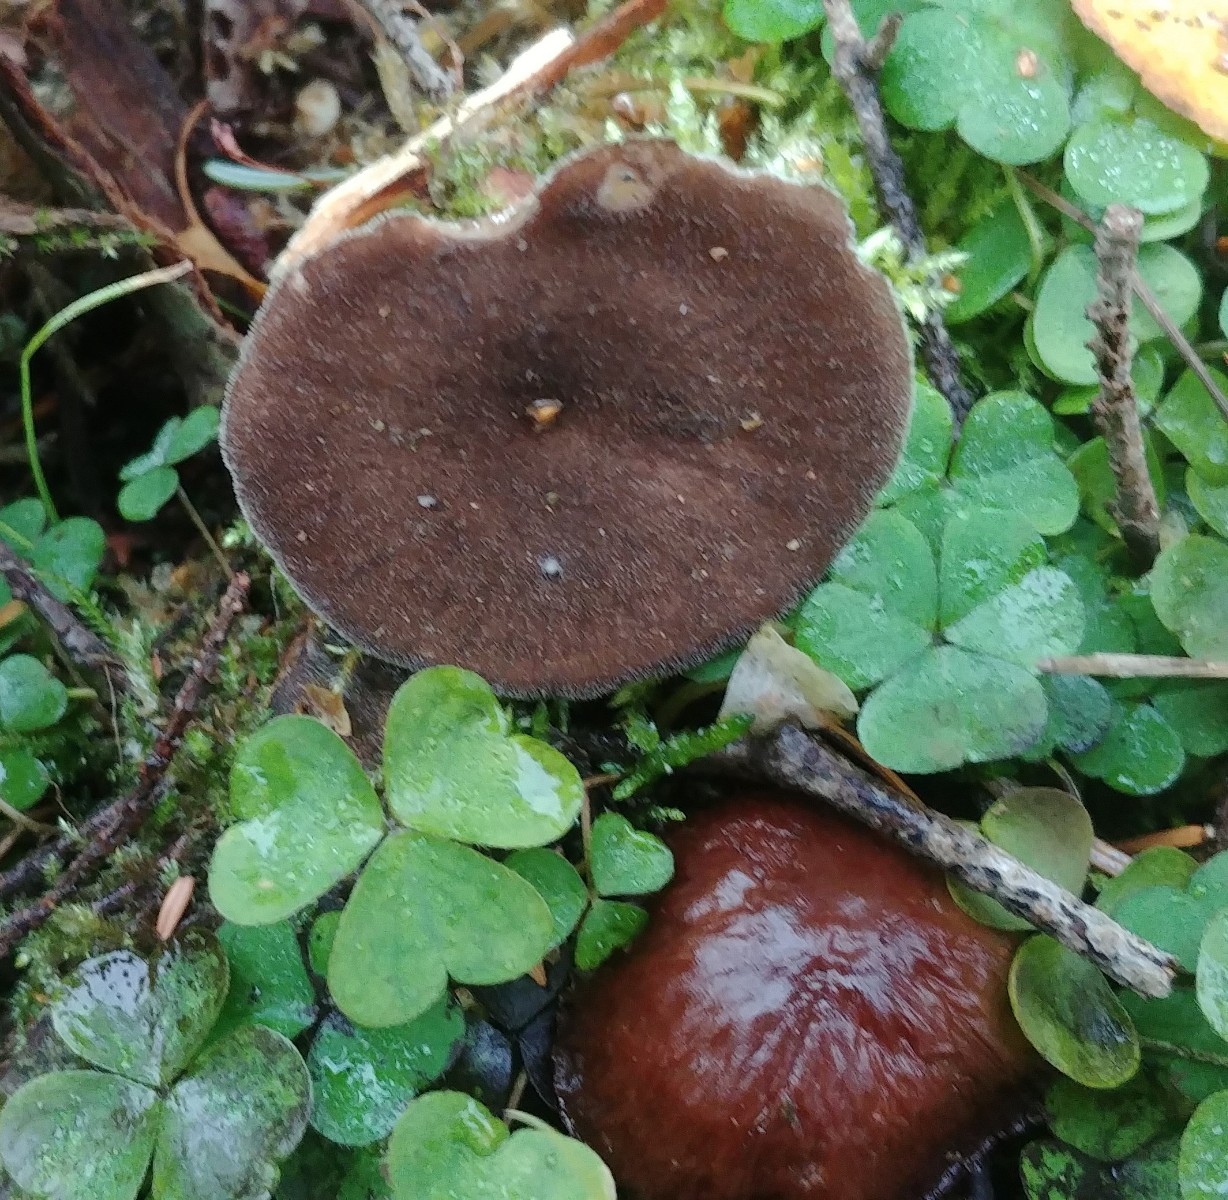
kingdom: Fungi
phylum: Basidiomycota
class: Agaricomycetes
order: Polyporales
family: Polyporaceae
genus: Lentinus
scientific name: Lentinus brumalis
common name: vinter-stilkporesvamp
